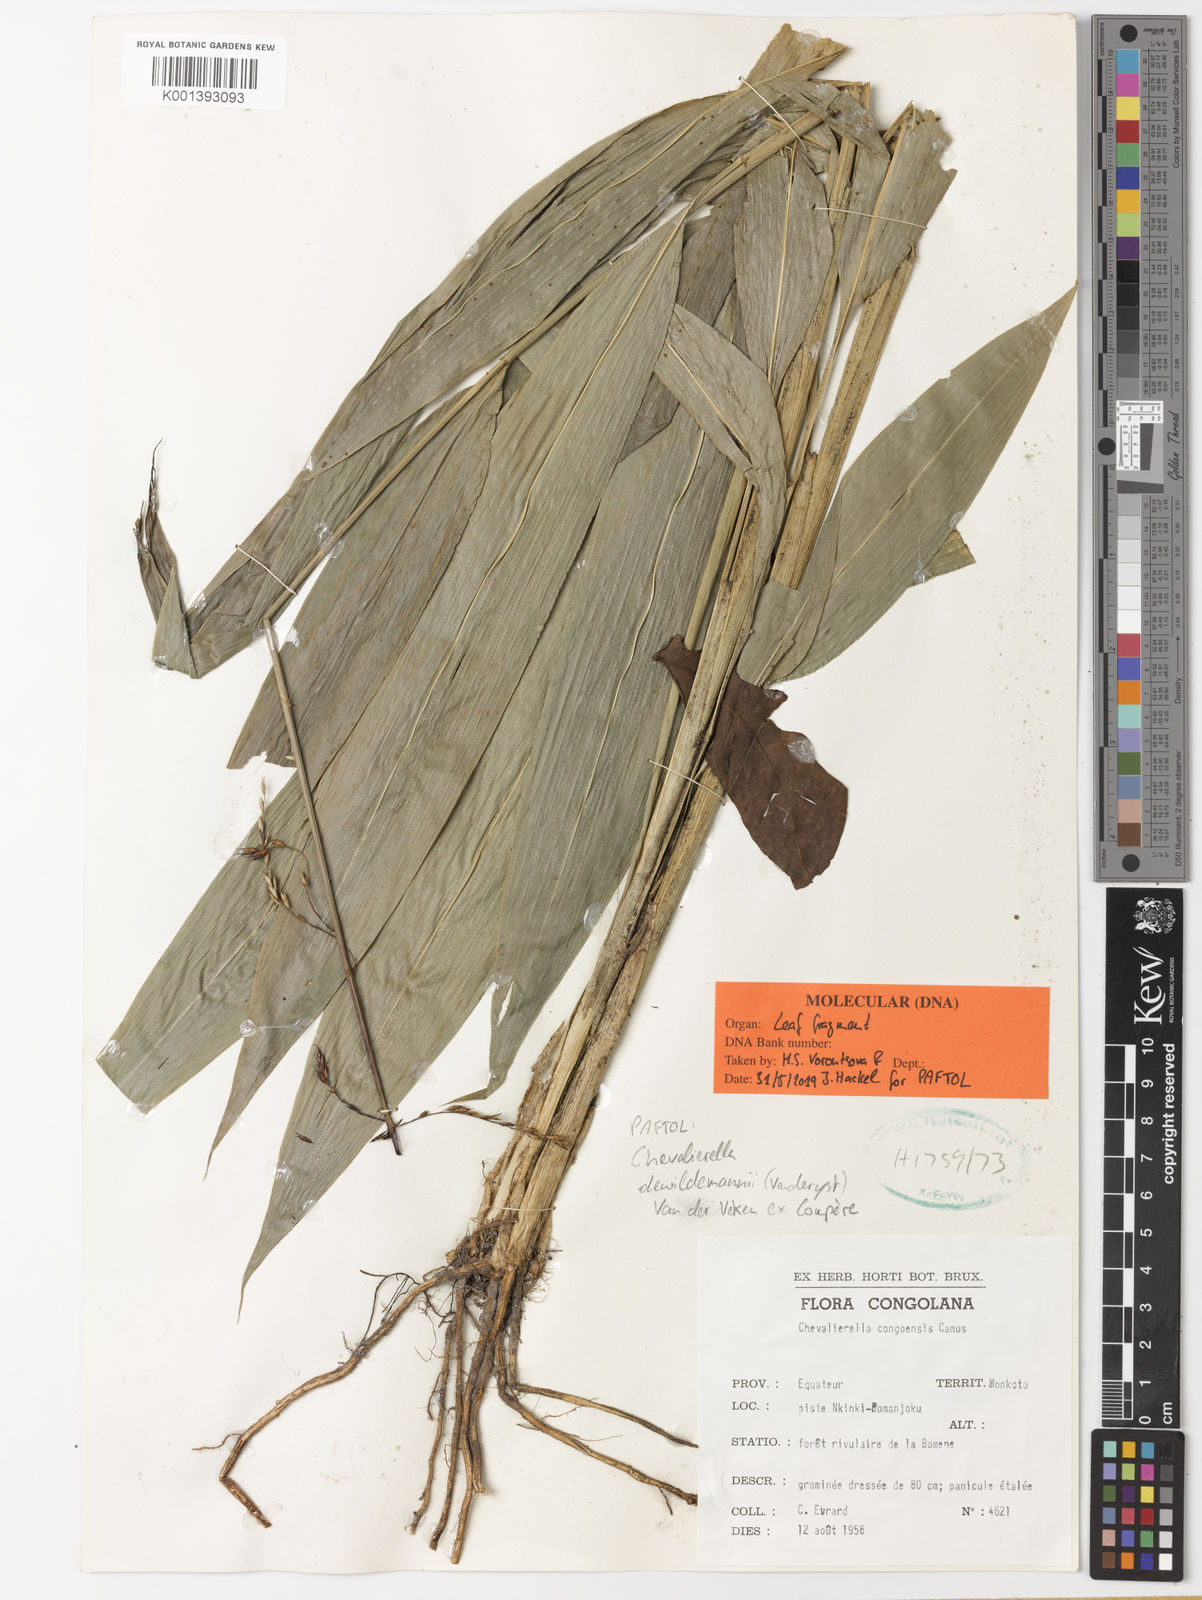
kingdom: Plantae
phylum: Tracheophyta
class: Liliopsida
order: Poales
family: Poaceae
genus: Chevalierella
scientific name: Chevalierella
